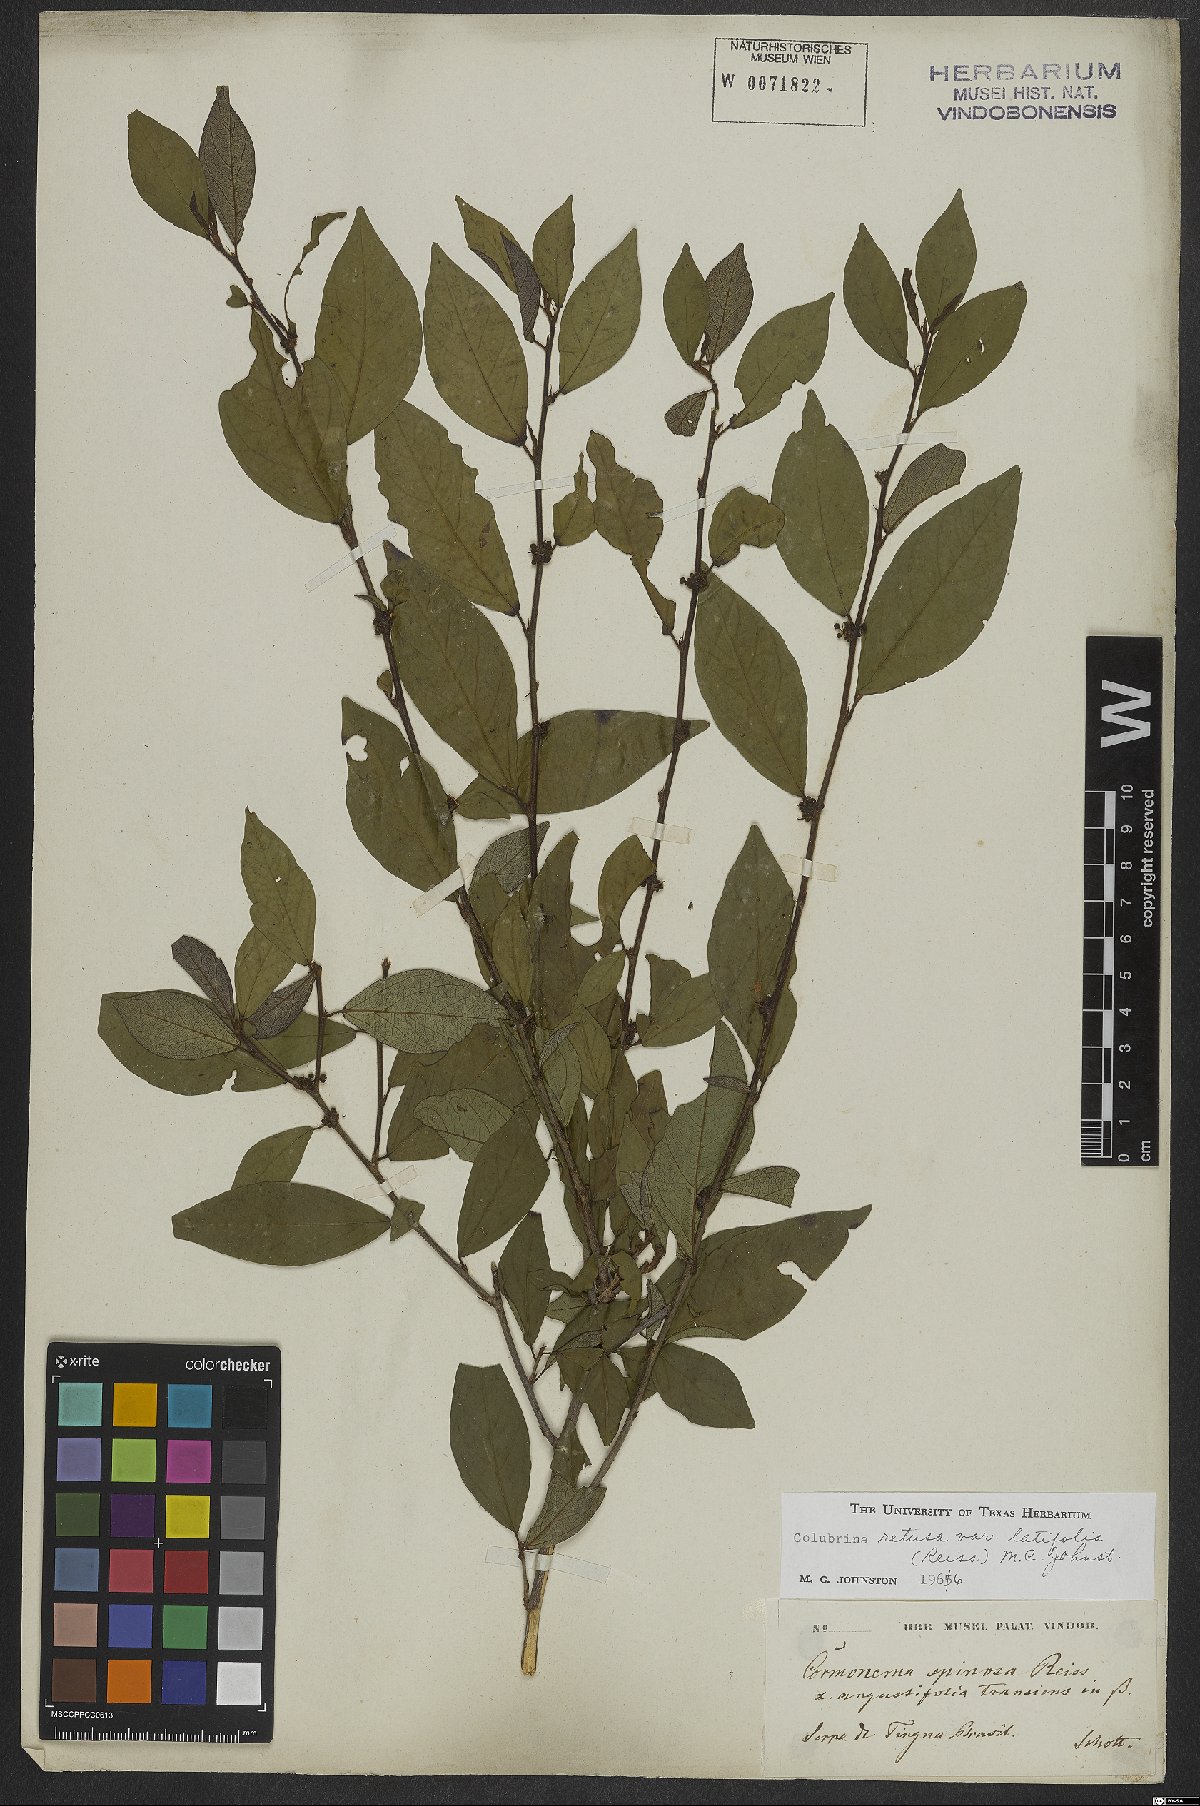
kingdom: Plantae
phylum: Tracheophyta
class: Magnoliopsida
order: Rosales
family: Rhamnaceae
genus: Colubrina
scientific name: Colubrina retusa
